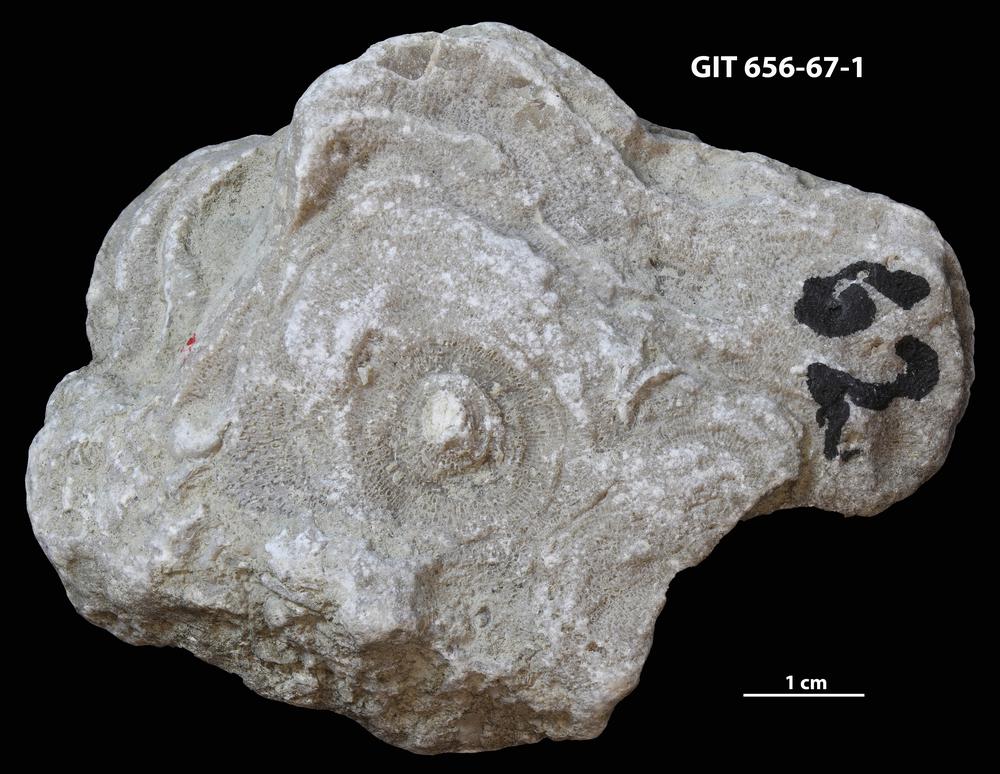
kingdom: Animalia
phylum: Cnidaria
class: Anthozoa
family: Theciidae
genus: Thecia
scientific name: Thecia
